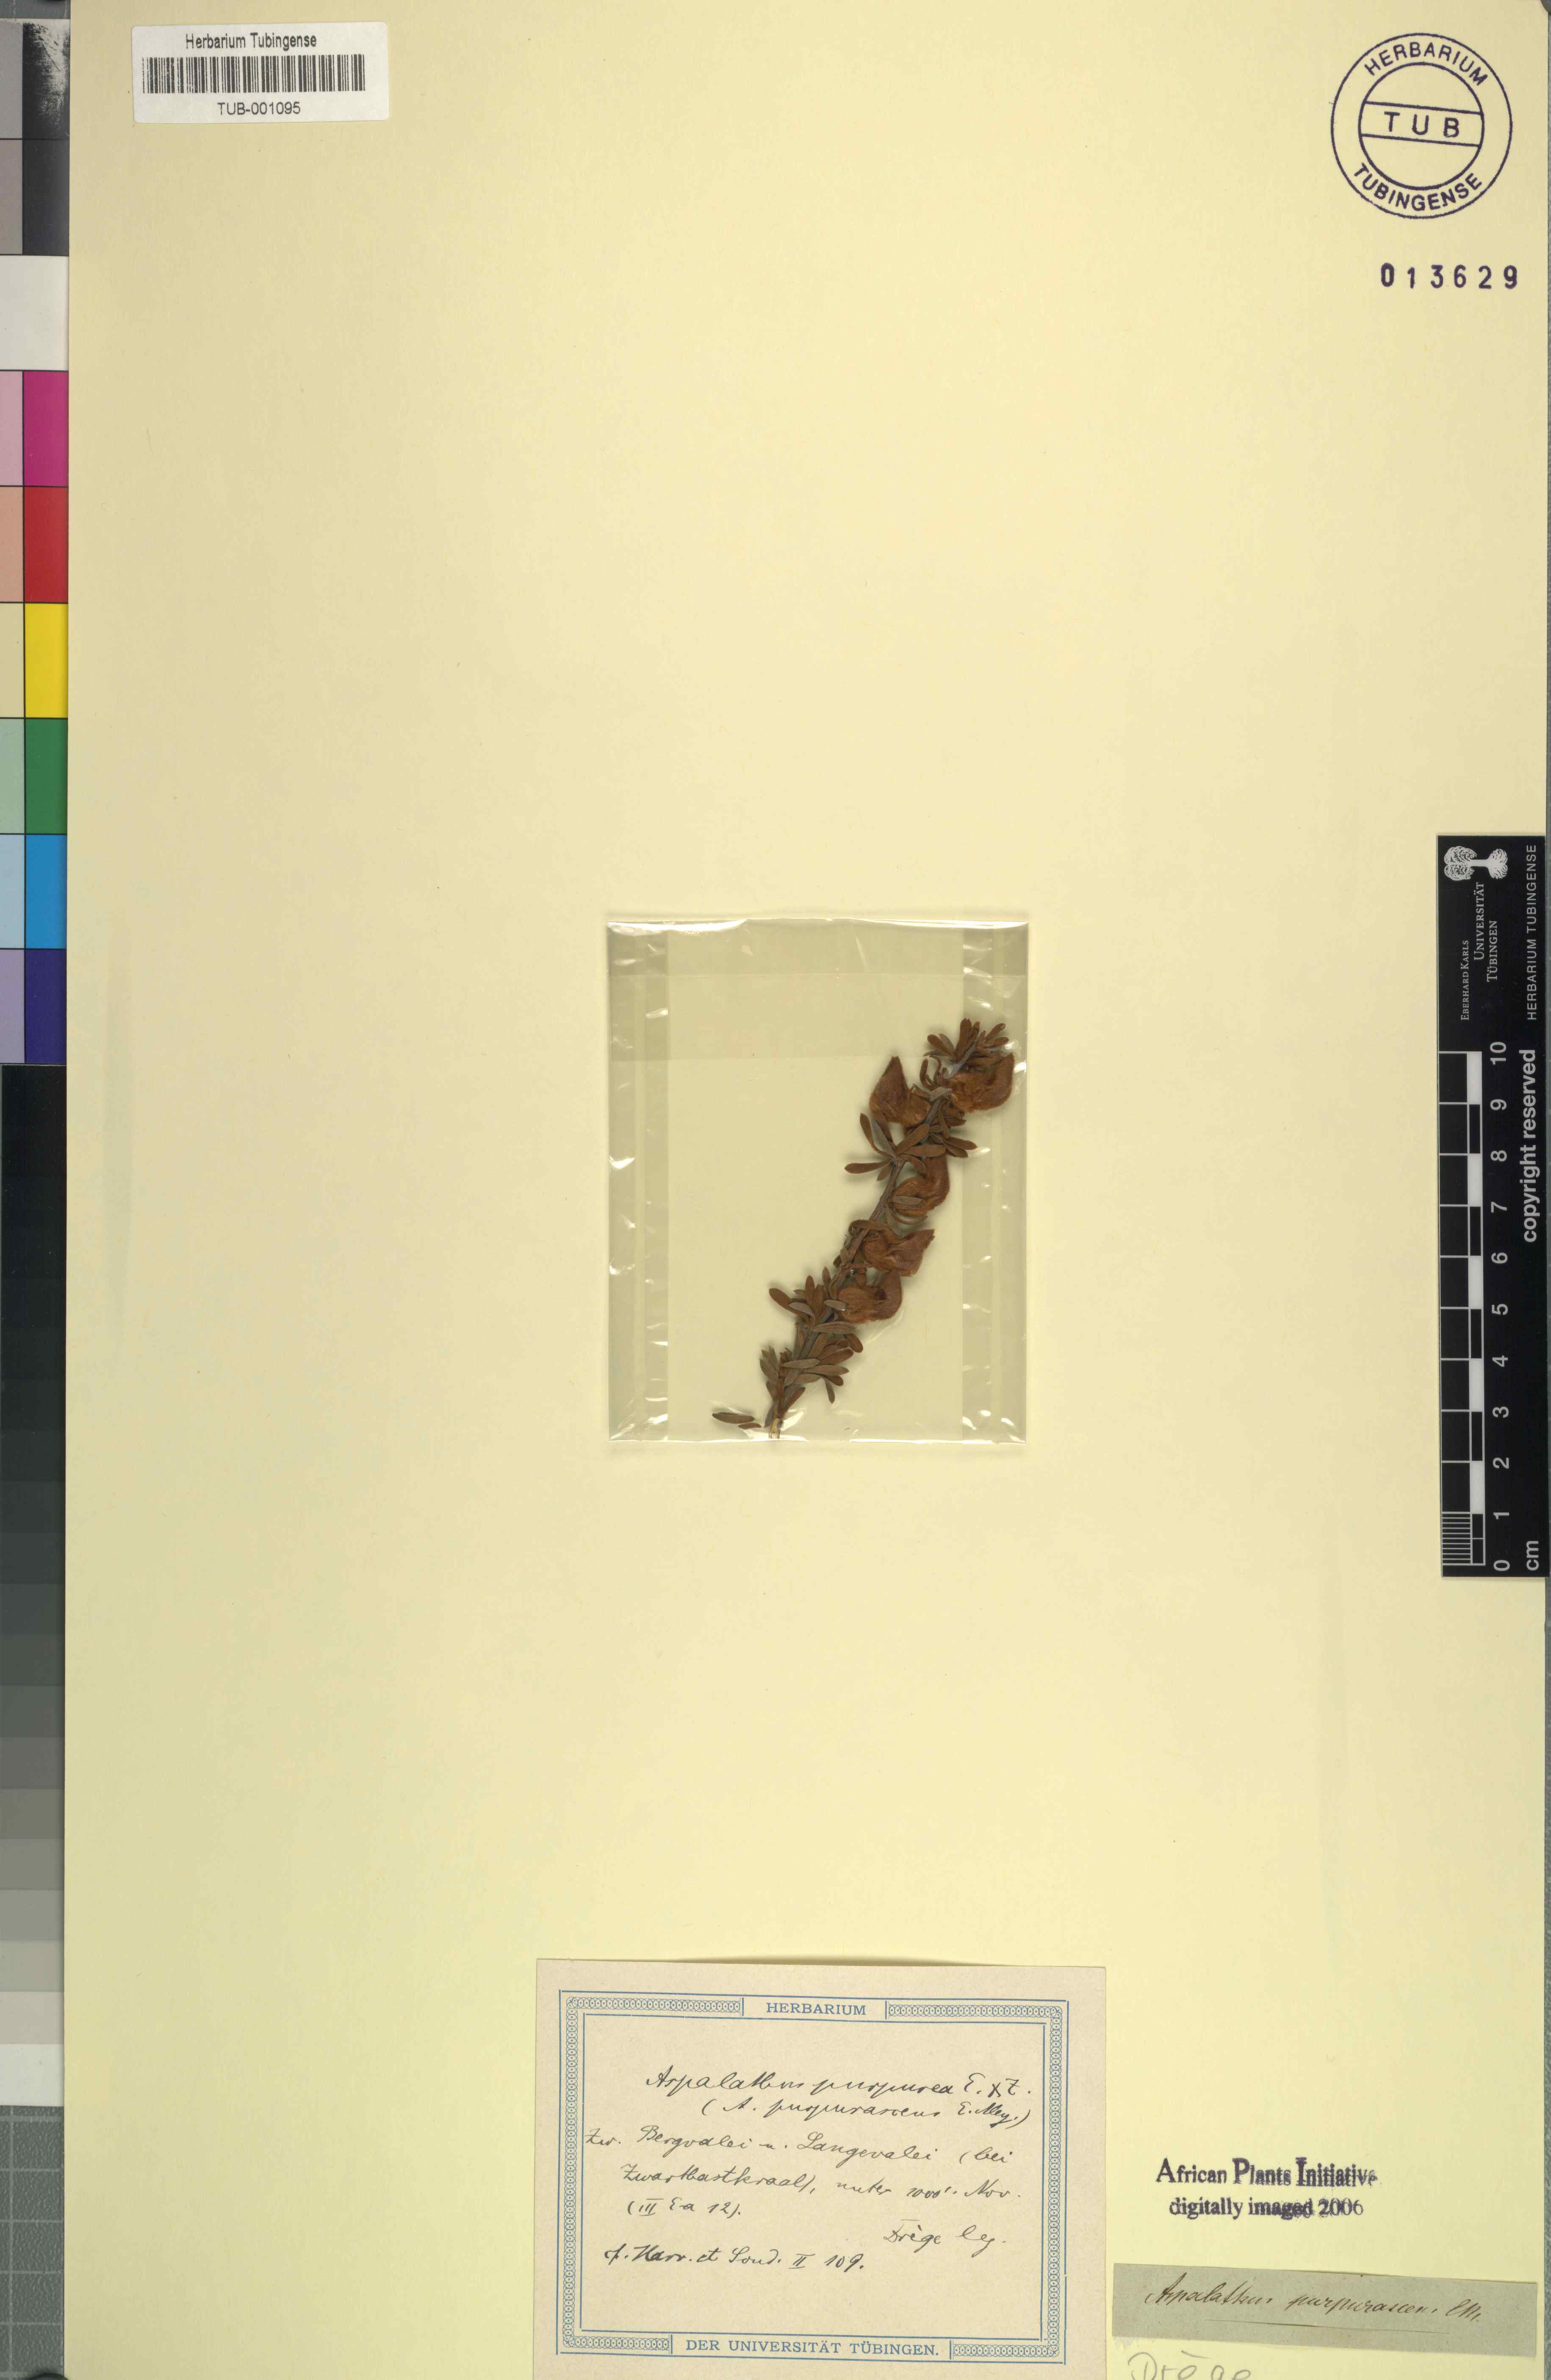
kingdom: Plantae
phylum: Tracheophyta
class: Magnoliopsida
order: Fabales
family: Fabaceae
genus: Aspalathus
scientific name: Aspalathus ternata
